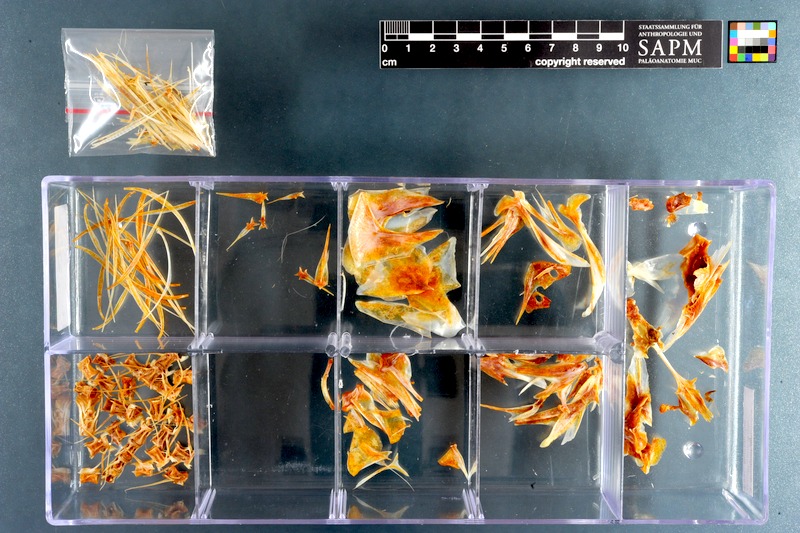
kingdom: Animalia
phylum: Chordata
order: Perciformes
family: Scombridae
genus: Scomber
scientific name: Scomber japonicus
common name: Chub mackerel
